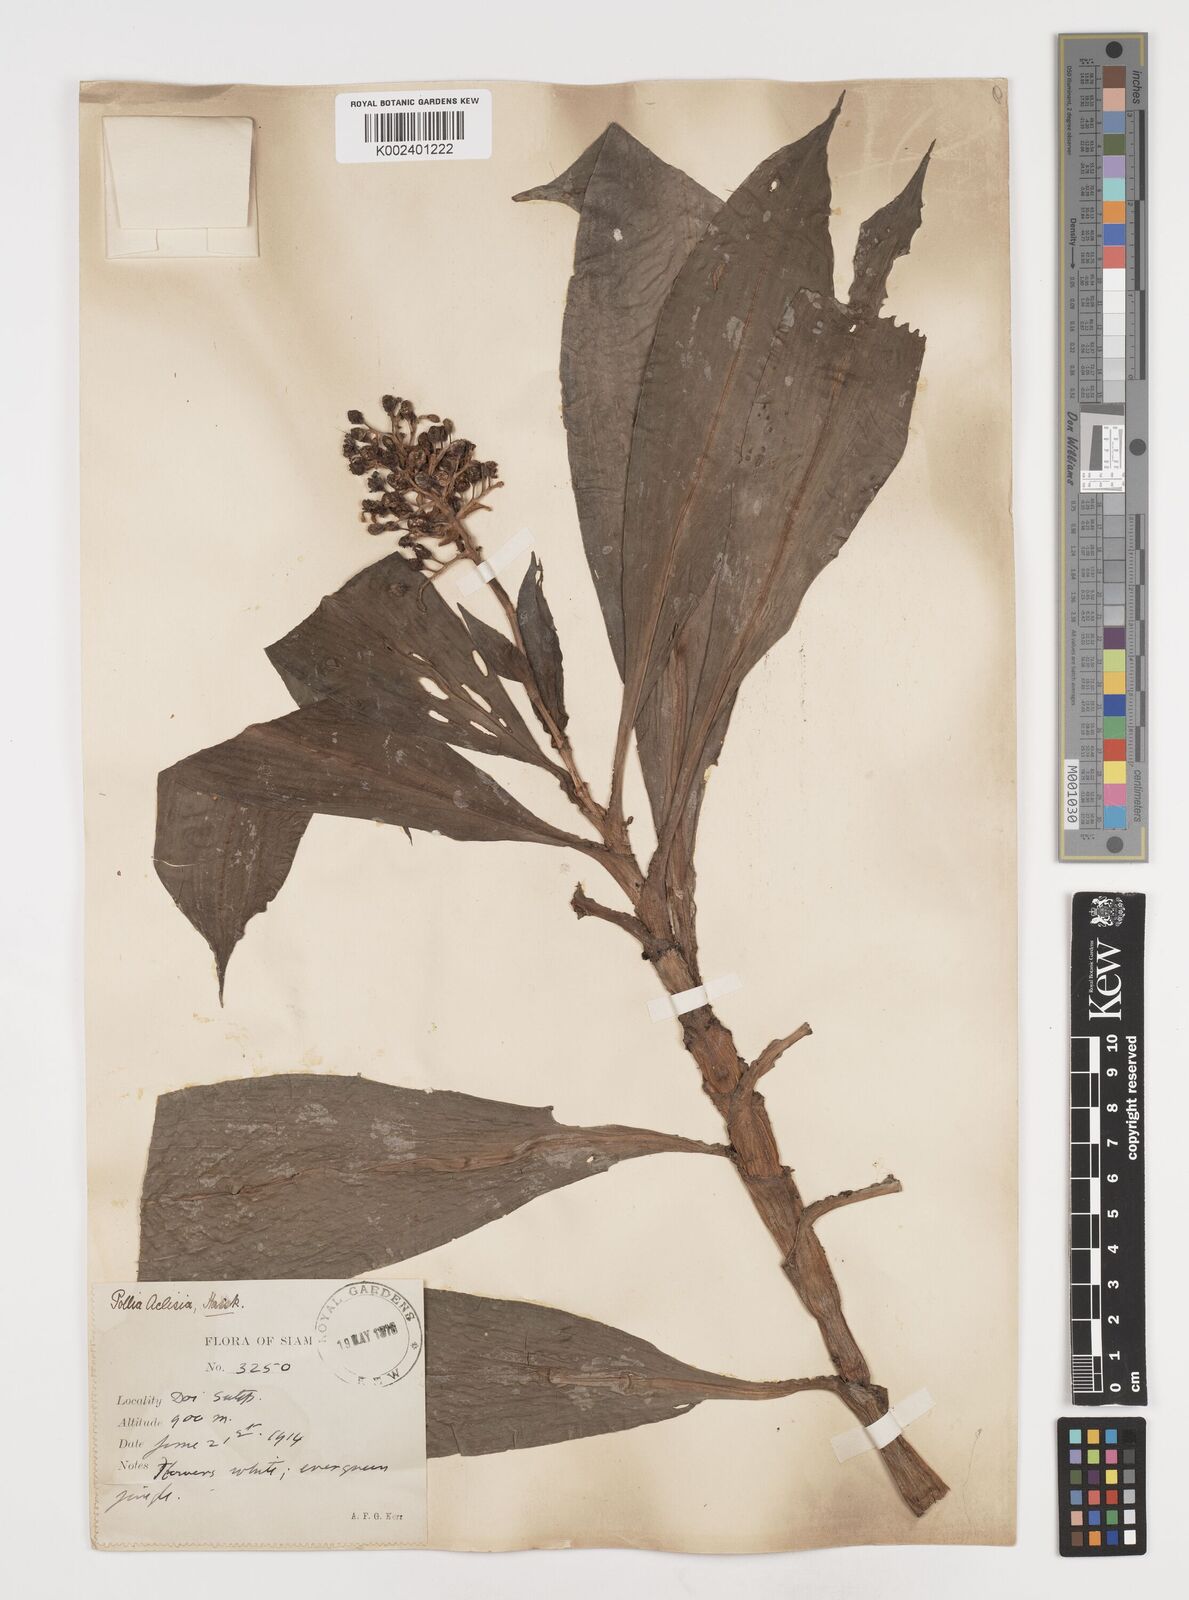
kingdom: Plantae
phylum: Tracheophyta
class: Liliopsida
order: Commelinales
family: Commelinaceae
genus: Pollia
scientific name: Pollia hasskarlii
